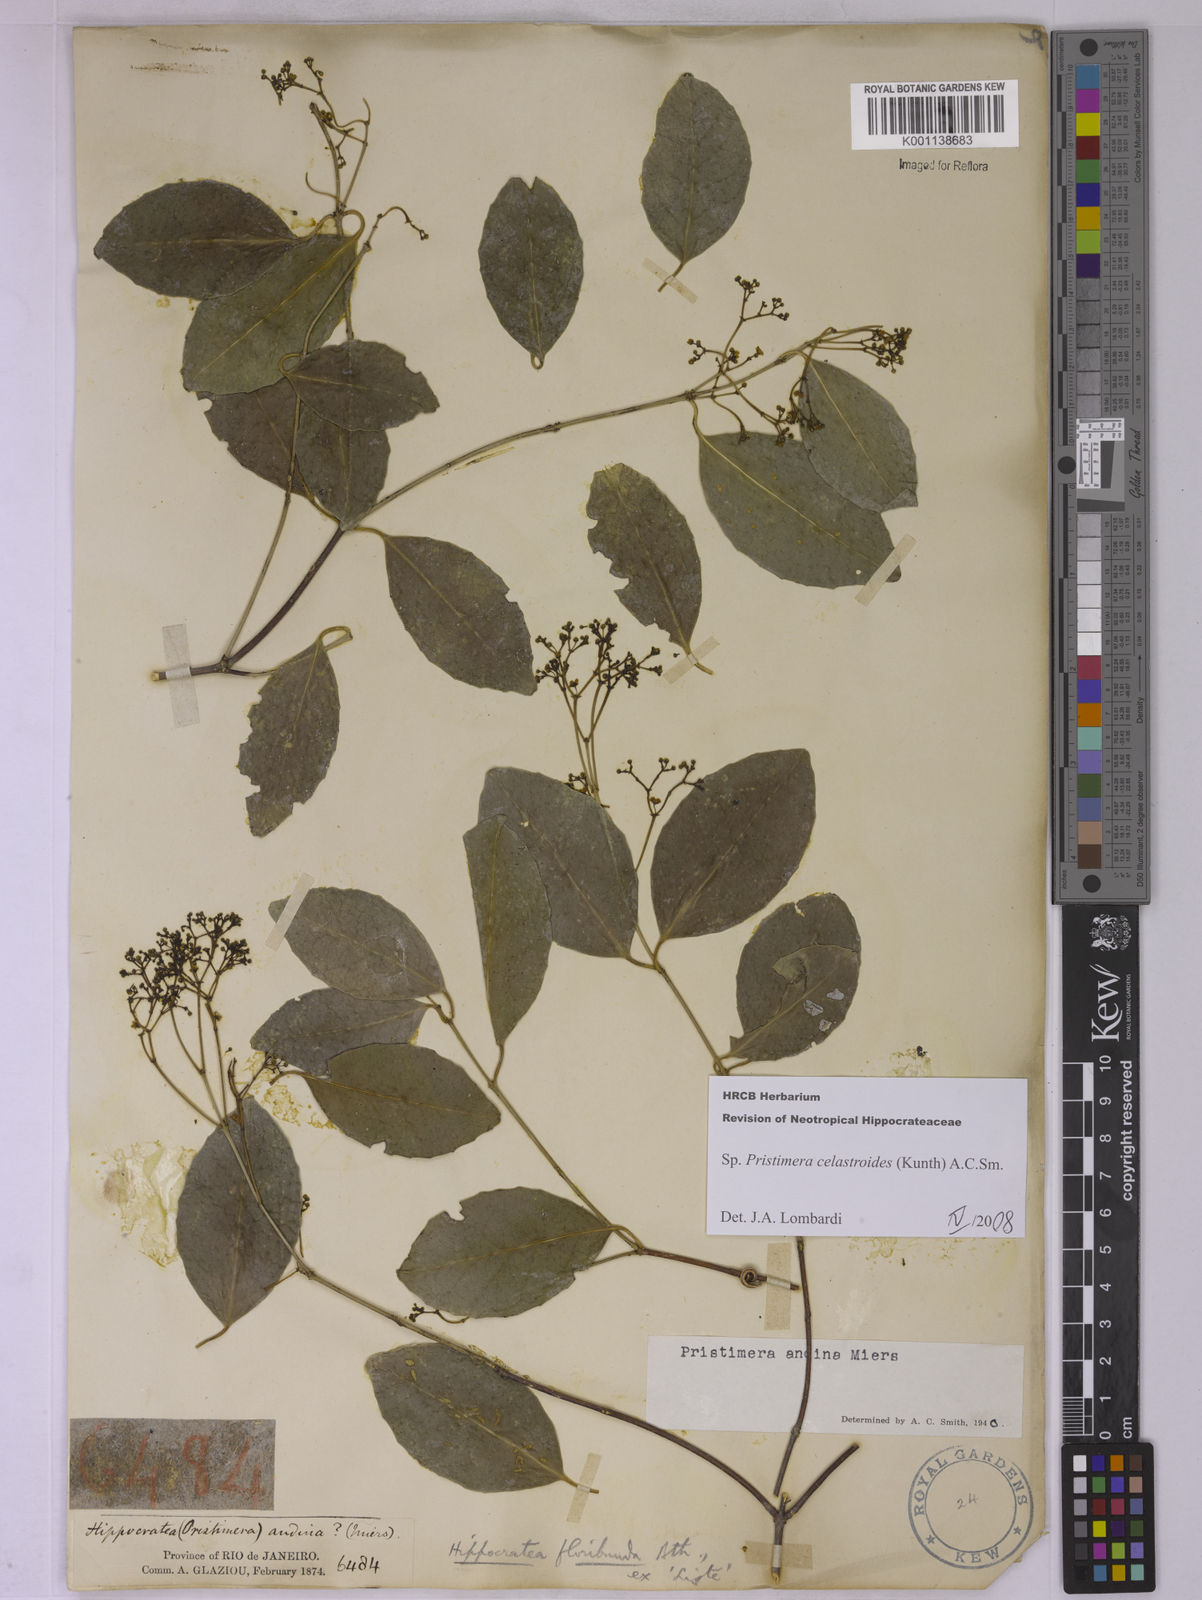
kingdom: Plantae
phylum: Tracheophyta
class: Magnoliopsida
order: Celastrales
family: Celastraceae
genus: Pristimera
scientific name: Pristimera celastroides
